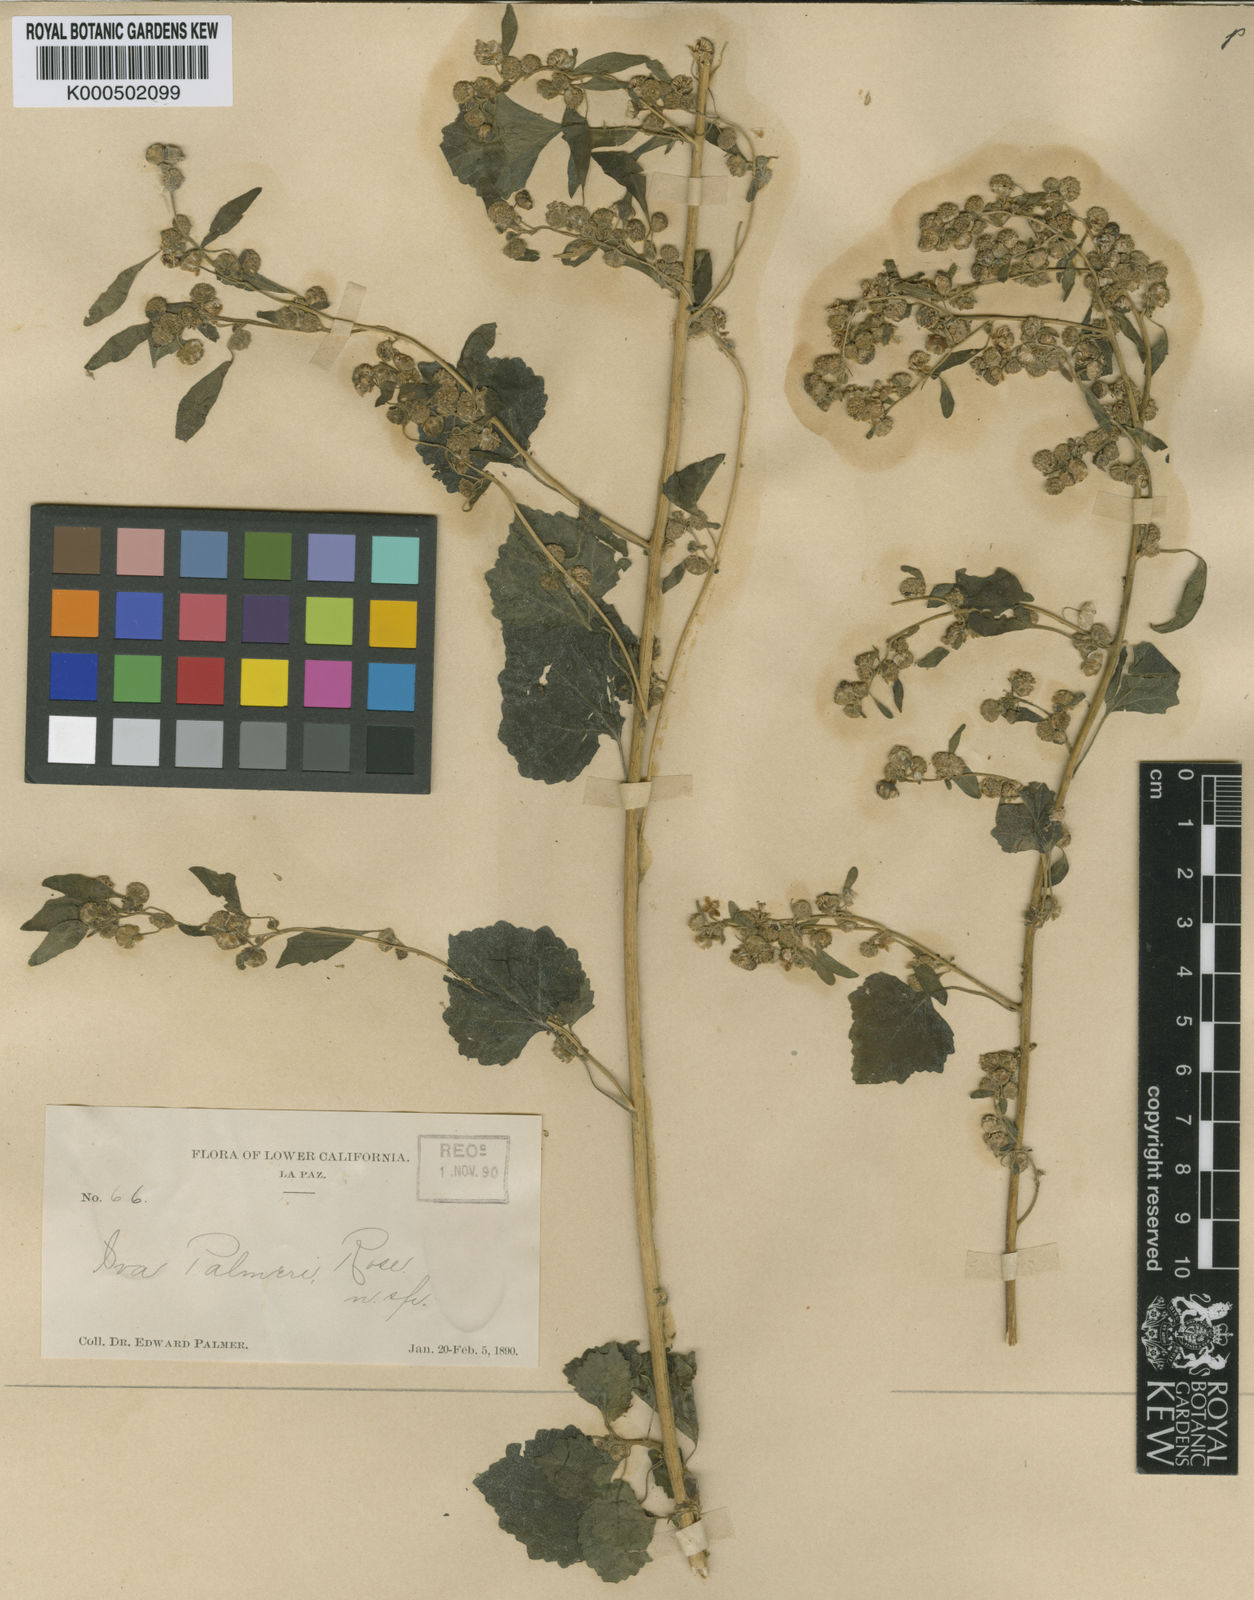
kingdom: Plantae
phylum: Tracheophyta
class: Magnoliopsida
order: Asterales
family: Asteraceae
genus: Iva
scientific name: Iva
